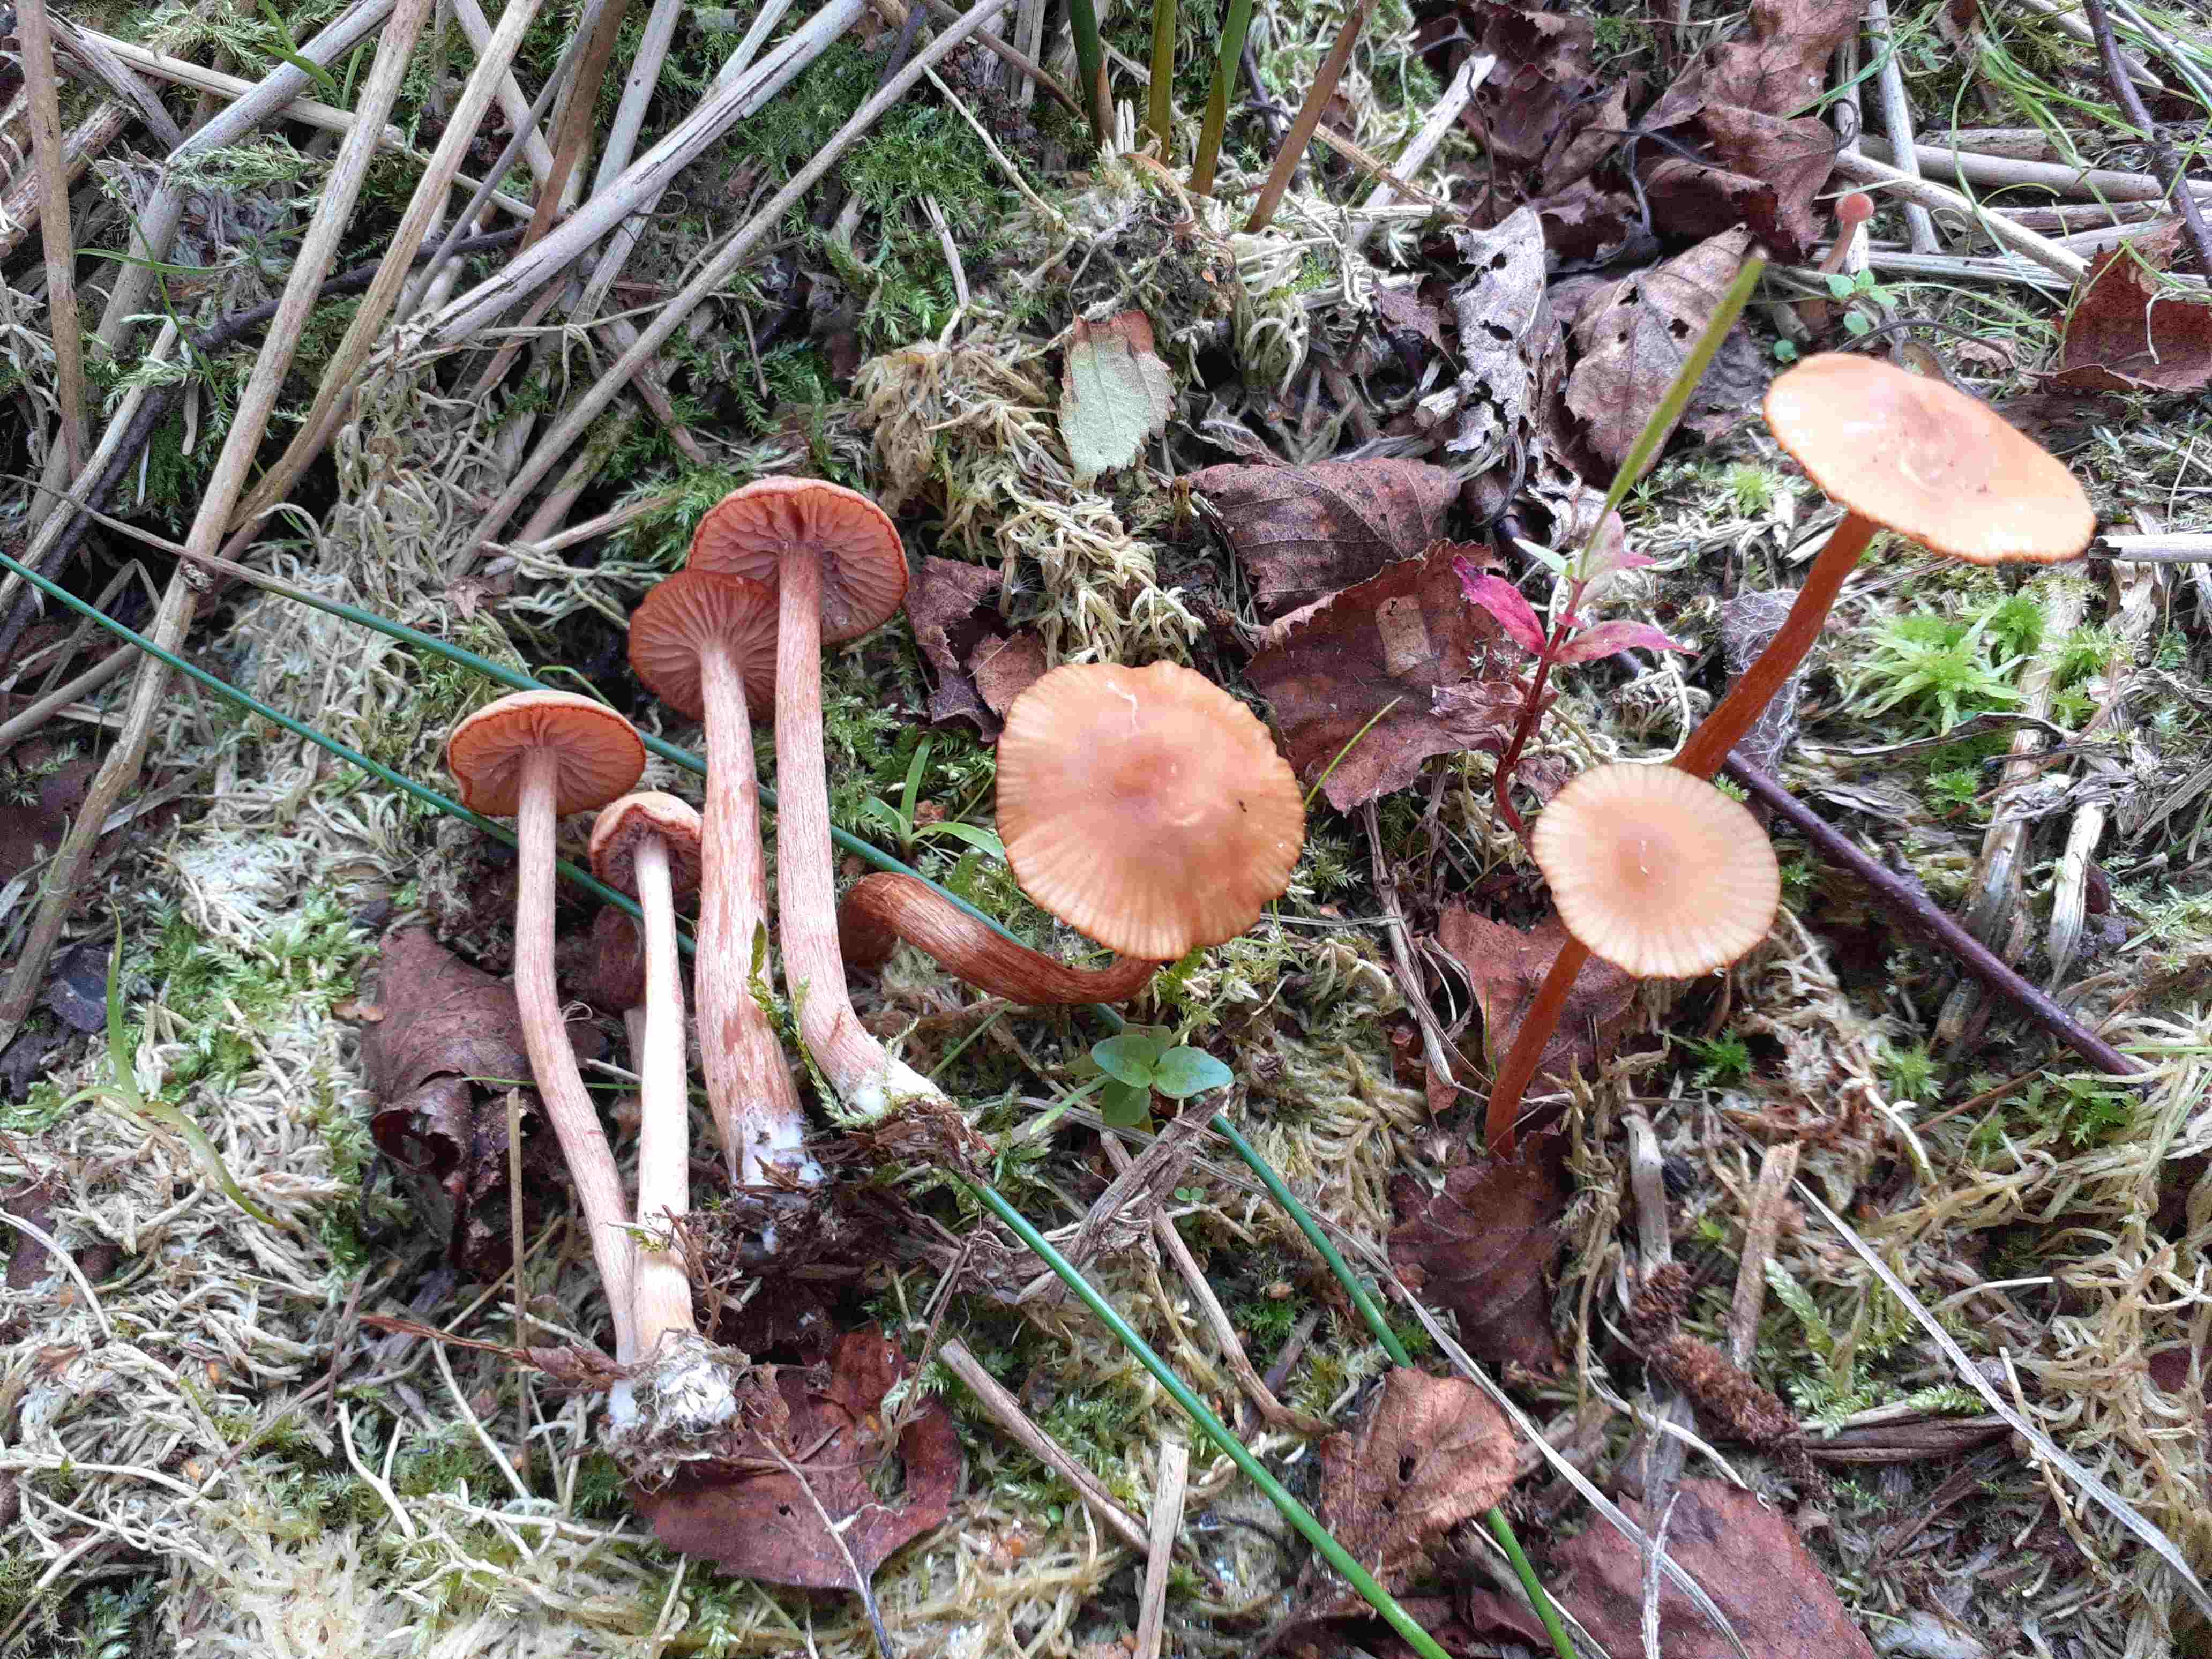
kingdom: Fungi
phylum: Basidiomycota
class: Agaricomycetes
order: Agaricales
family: Hydnangiaceae
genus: Laccaria
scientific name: Laccaria laccata
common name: rød ametysthat
